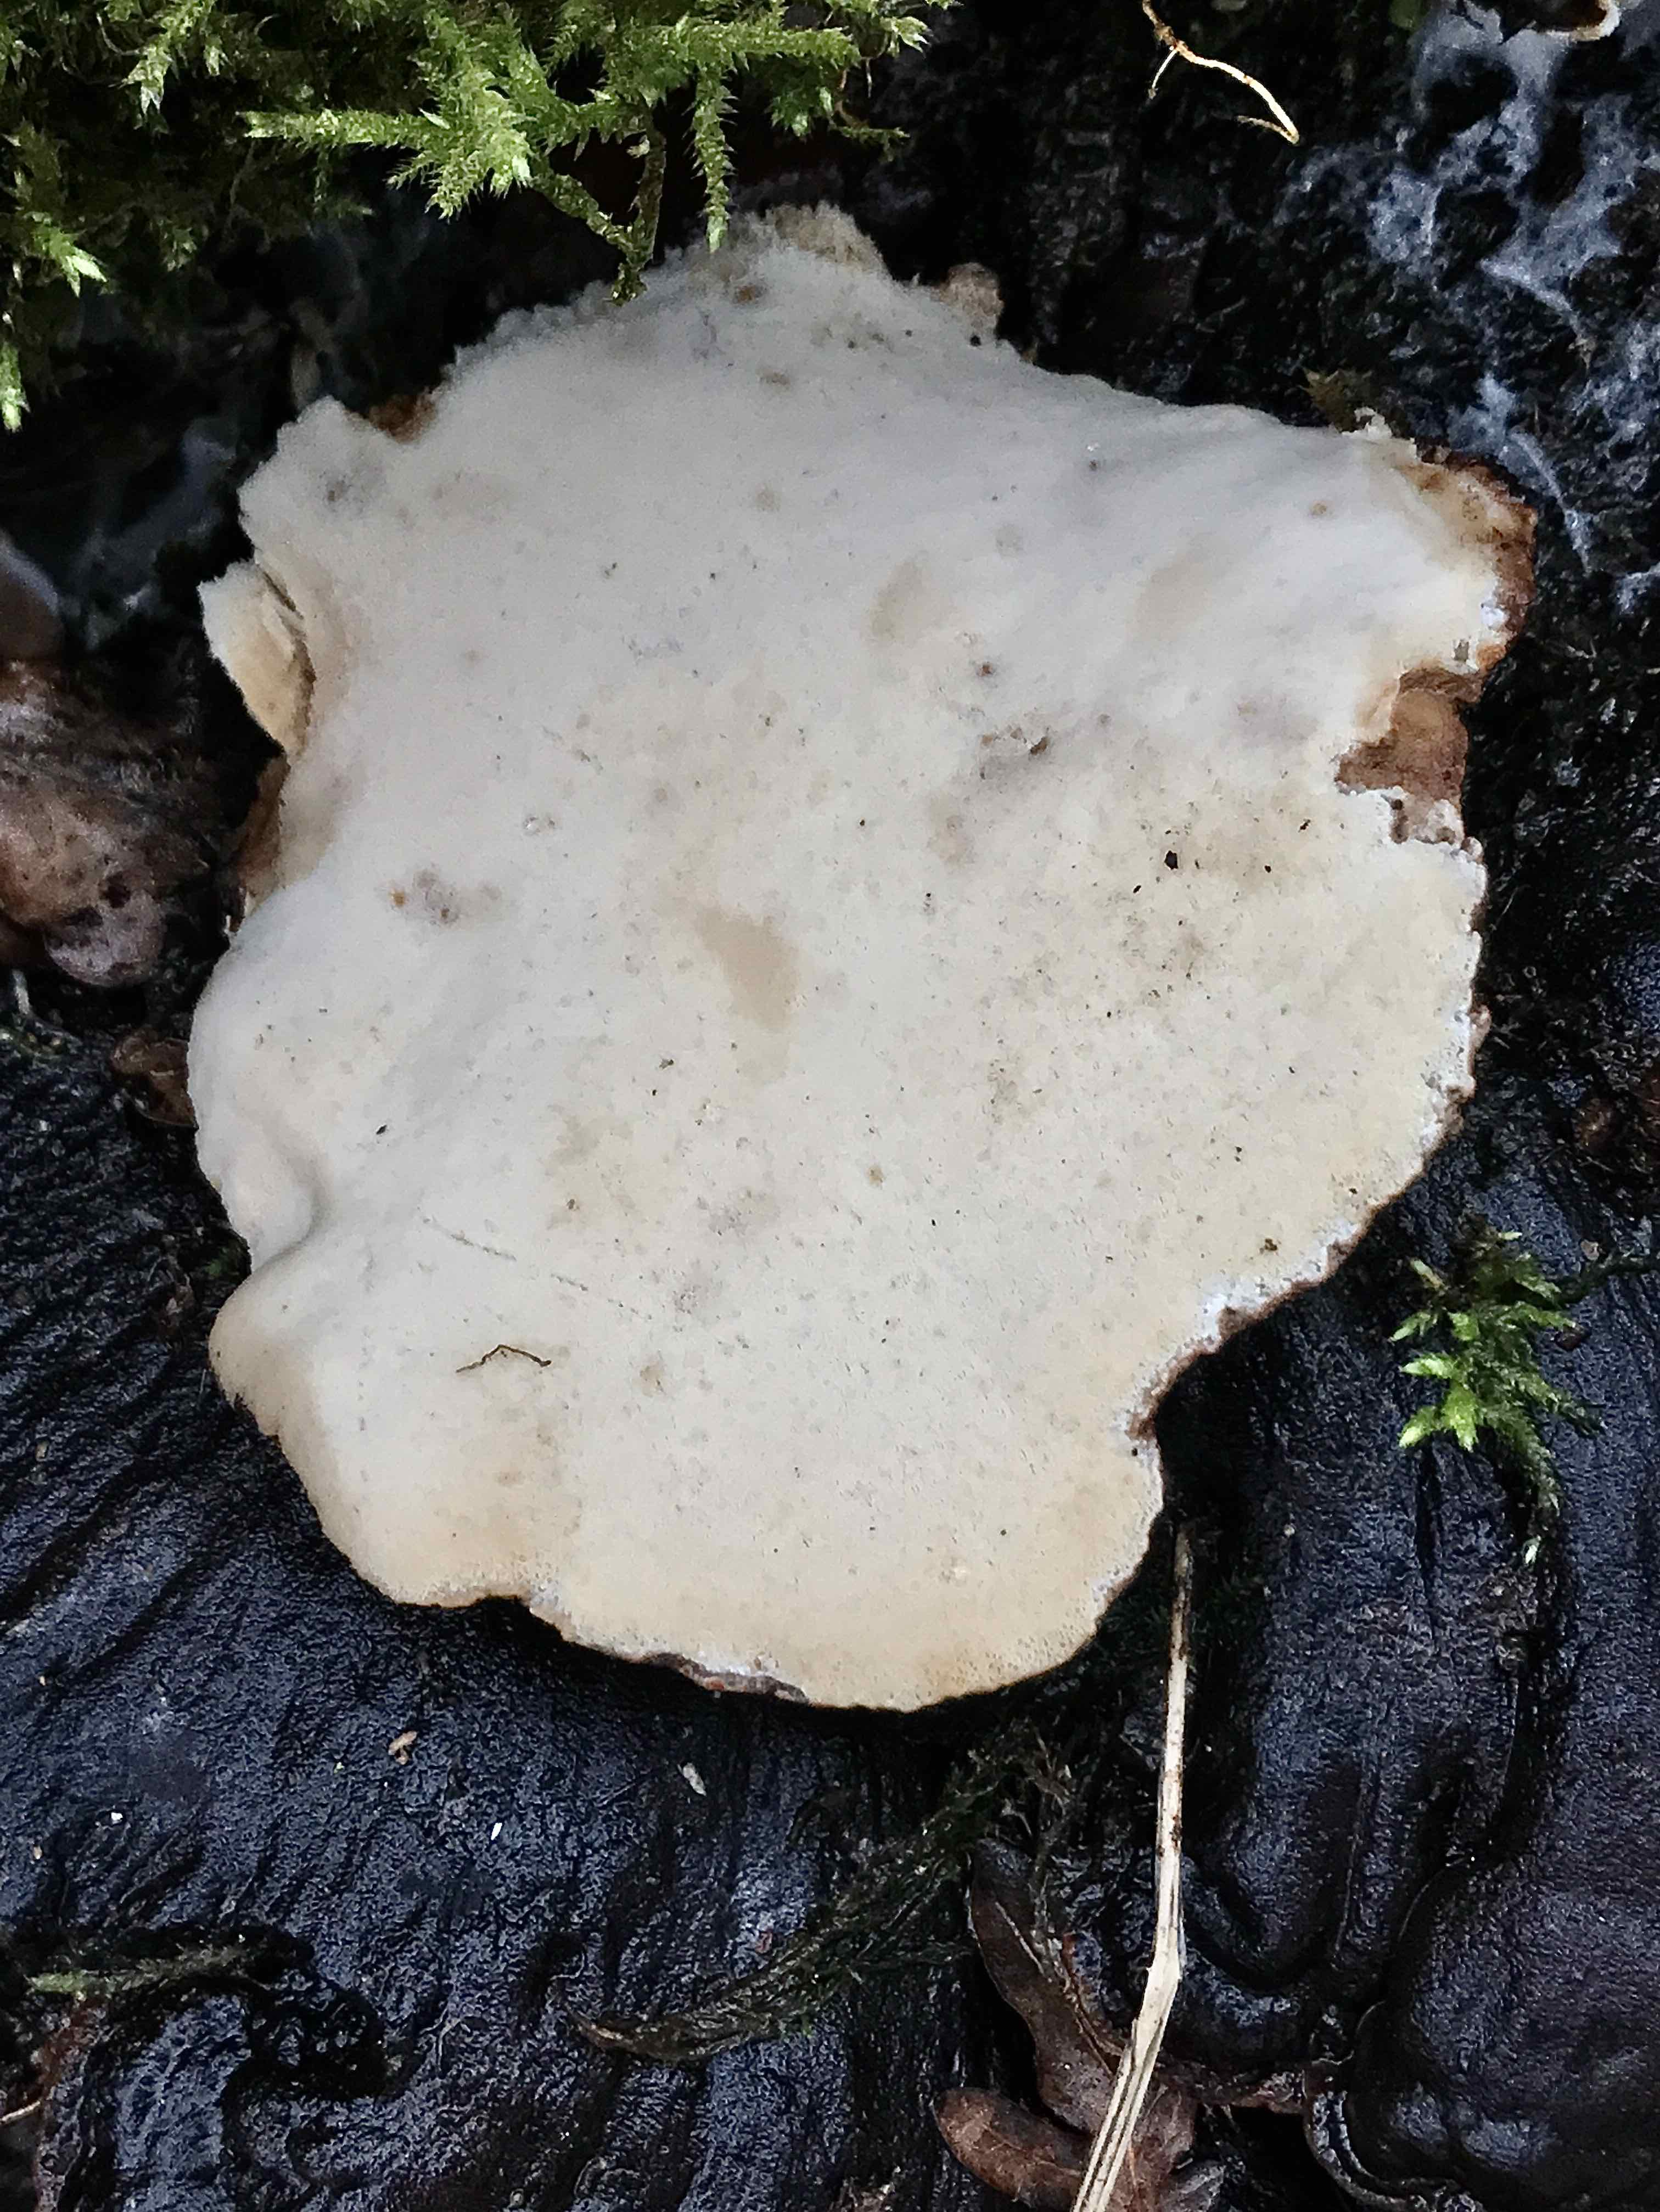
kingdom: Fungi
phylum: Basidiomycota
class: Agaricomycetes
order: Polyporales
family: Ischnodermataceae
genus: Ischnoderma
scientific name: Ischnoderma resinosum
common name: løv-tjæreporesvamp
